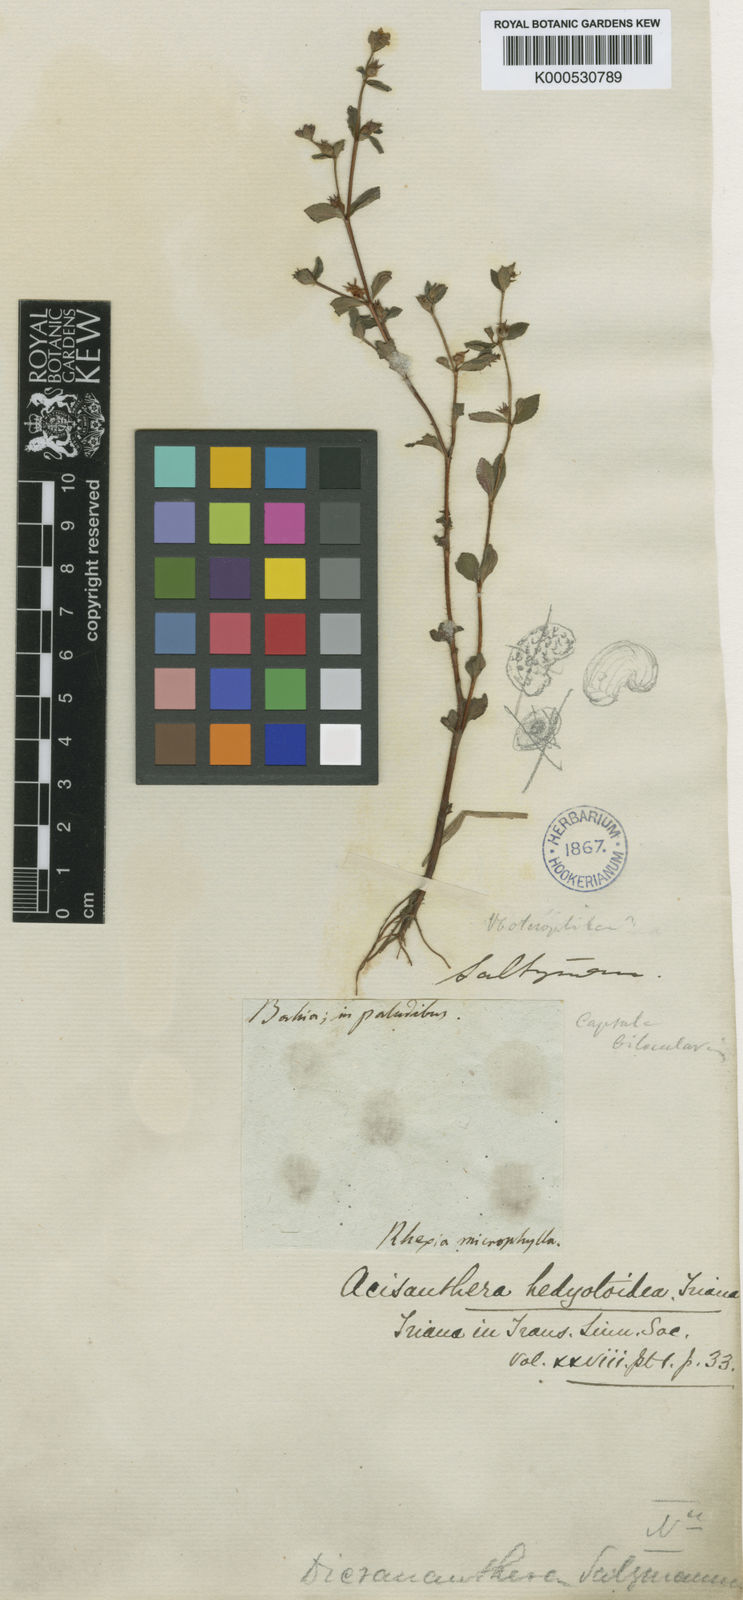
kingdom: Plantae
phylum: Tracheophyta
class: Magnoliopsida
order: Myrtales
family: Melastomataceae
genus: Acisanthera
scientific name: Acisanthera hedyotoidea
